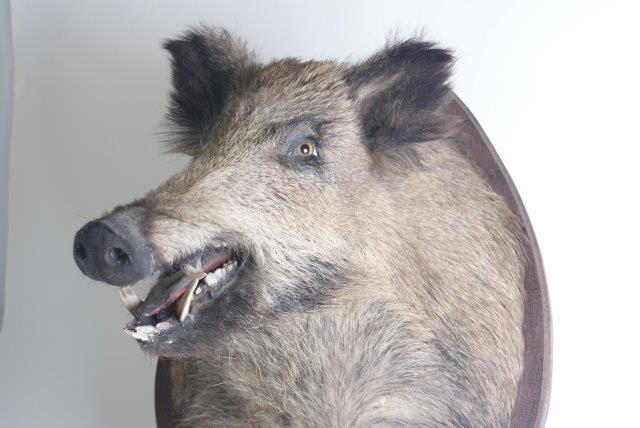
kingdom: Animalia
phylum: Chordata
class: Mammalia
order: Artiodactyla
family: Suidae
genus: Sus
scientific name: Sus scrofa
